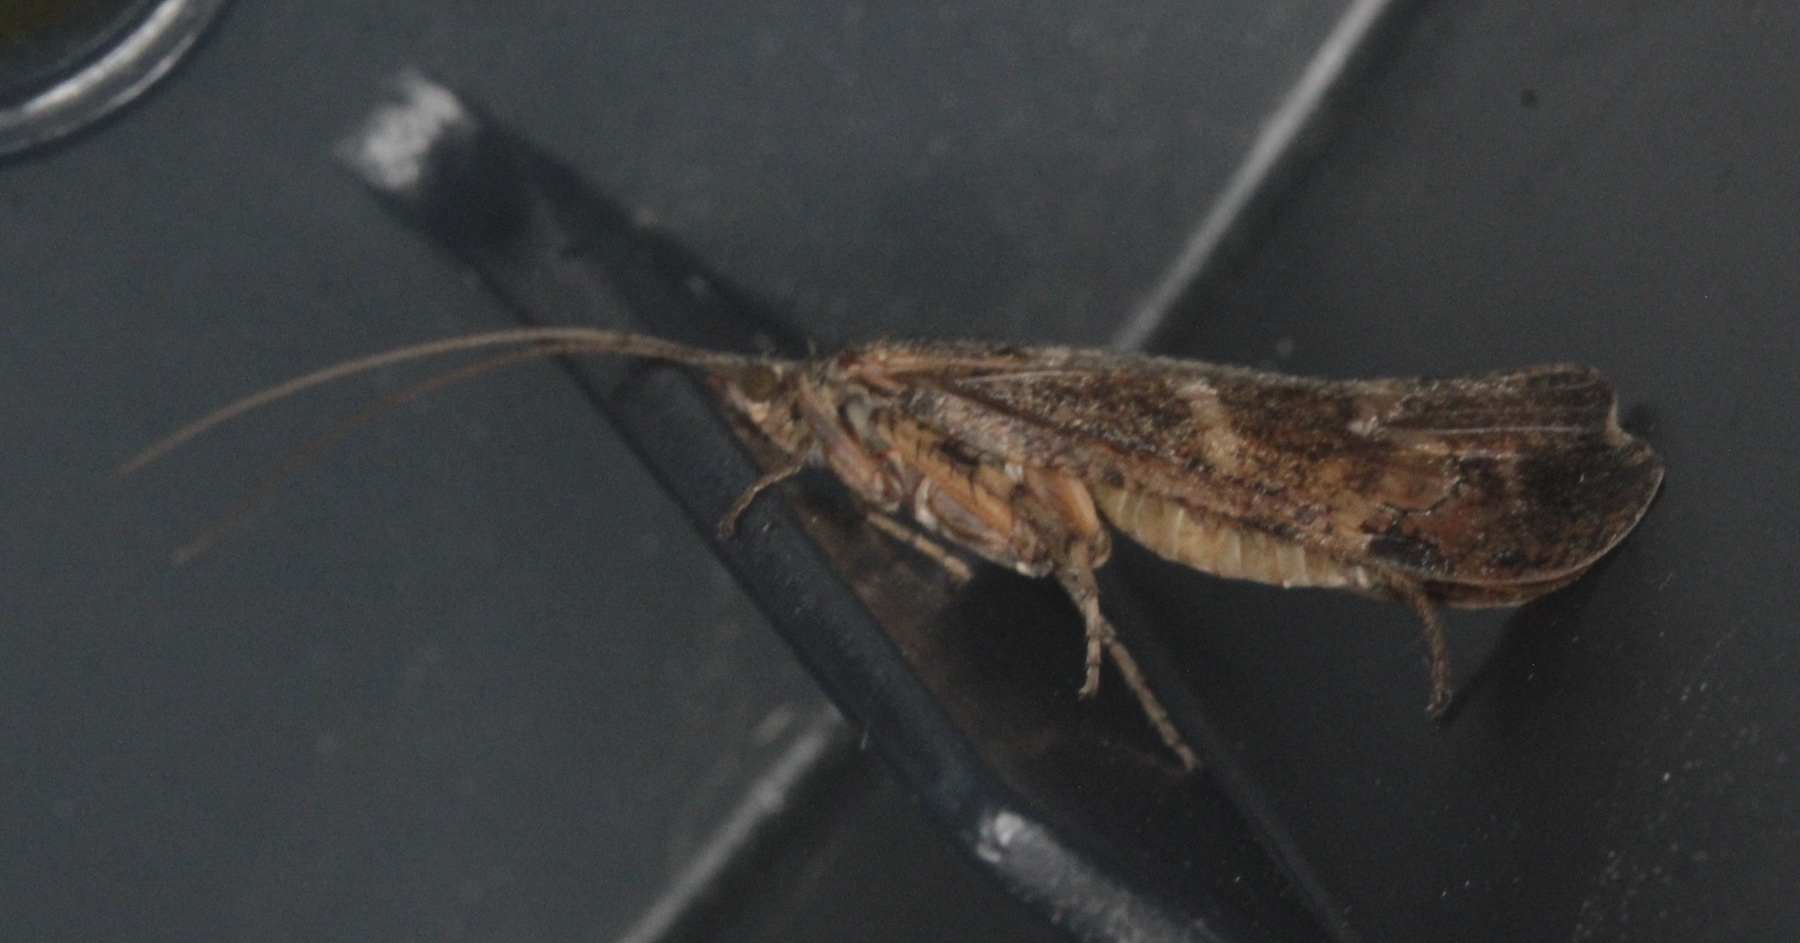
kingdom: Animalia
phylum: Arthropoda
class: Insecta
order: Trichoptera
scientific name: Trichoptera
